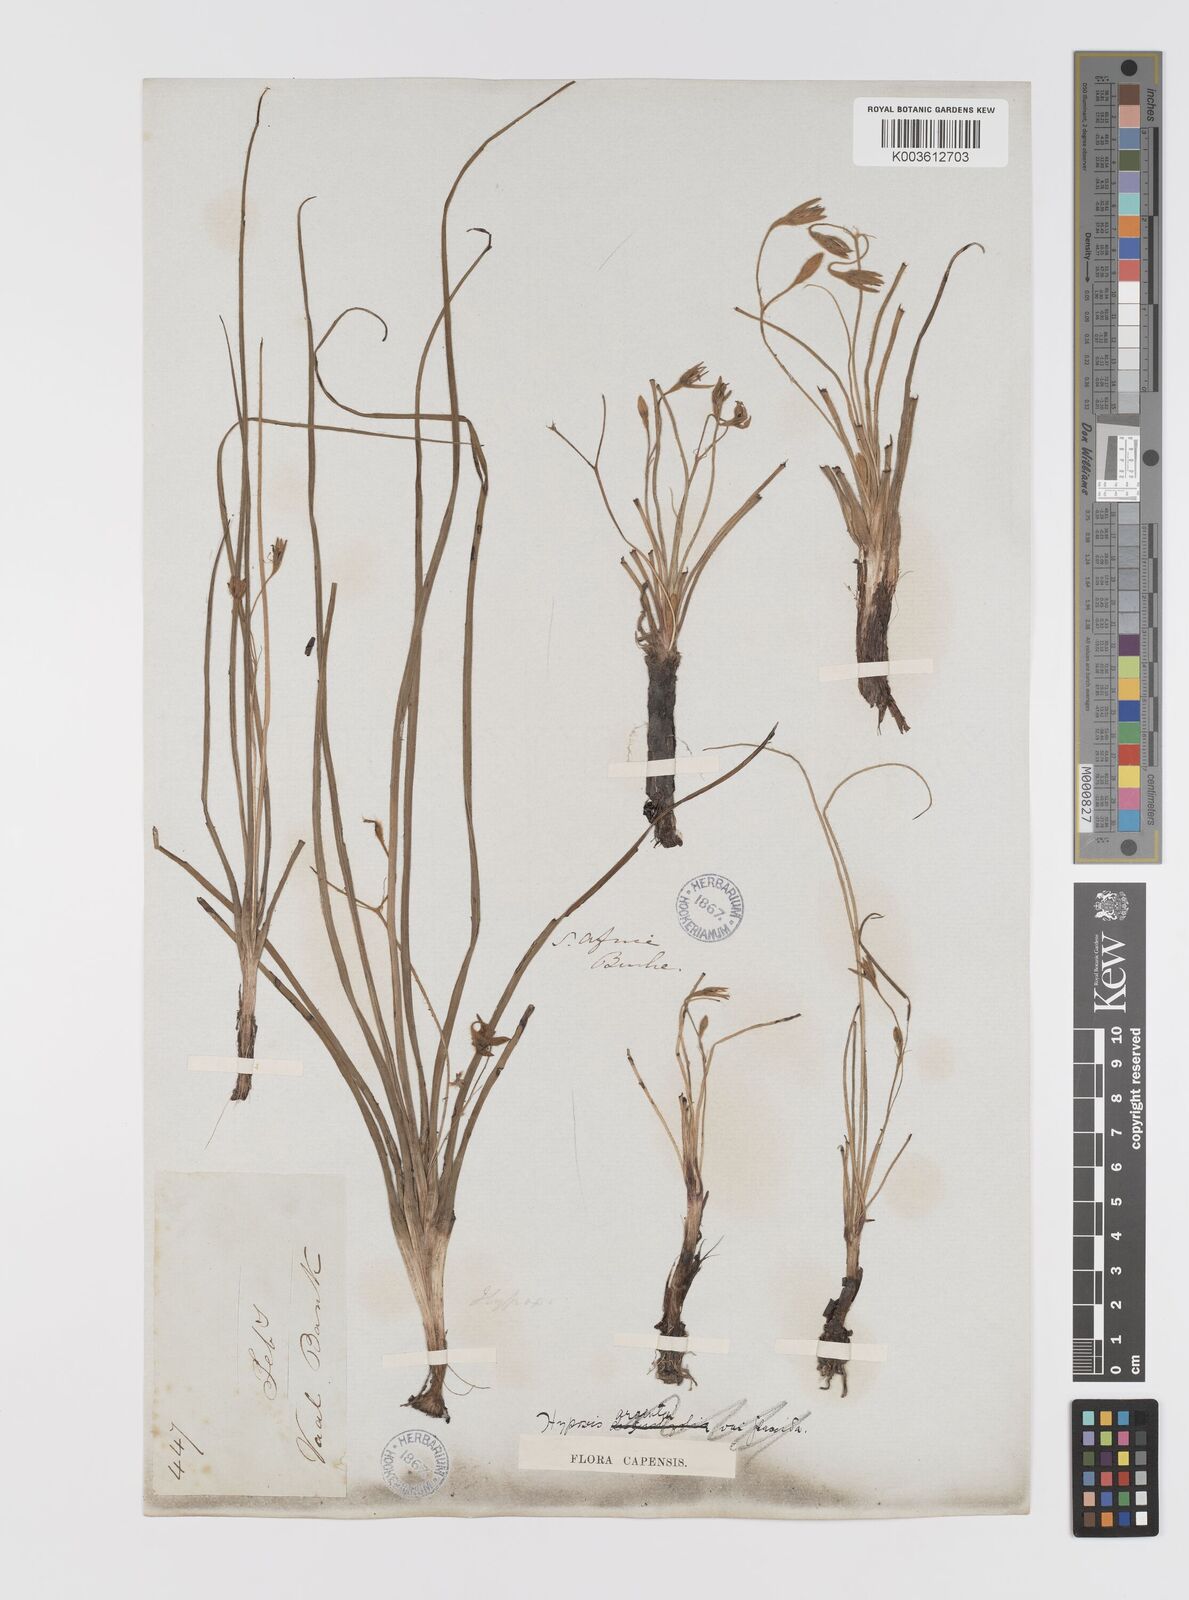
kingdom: Plantae
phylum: Tracheophyta
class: Liliopsida
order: Asparagales
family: Hypoxidaceae
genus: Hypoxis
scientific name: Hypoxis argentea
